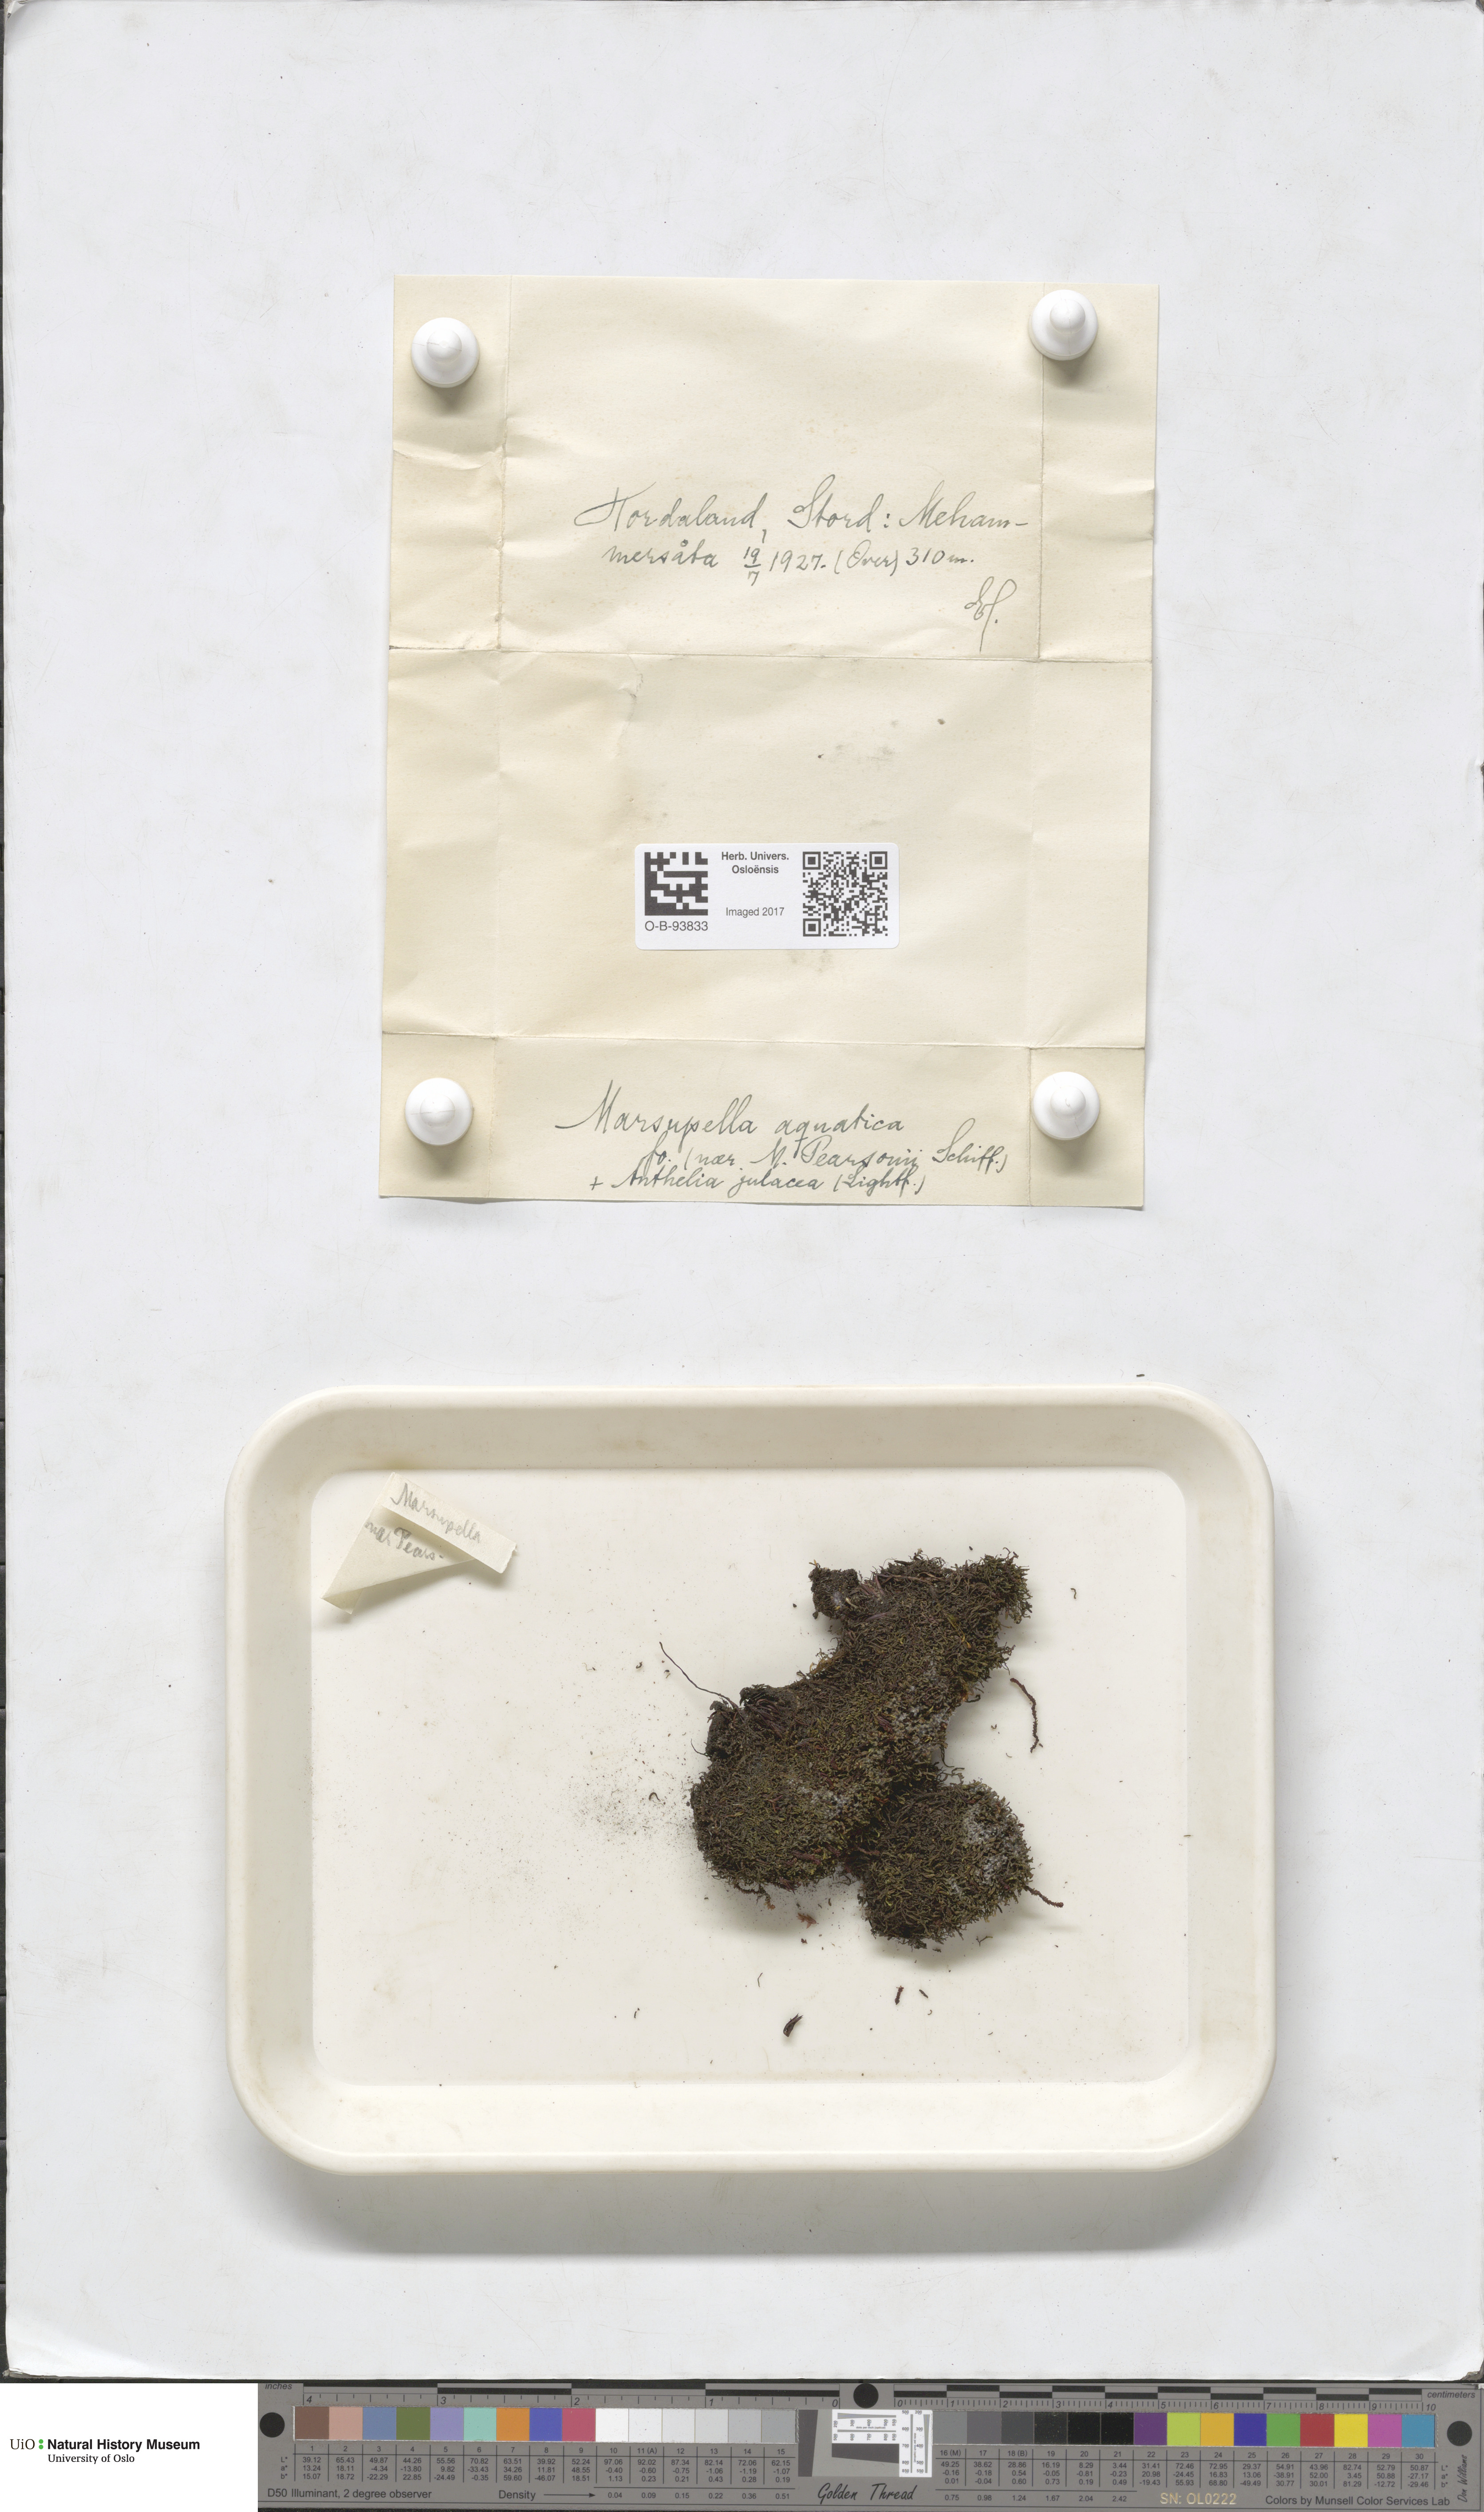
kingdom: Plantae
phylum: Marchantiophyta
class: Jungermanniopsida
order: Jungermanniales
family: Gymnomitriaceae
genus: Marsupella
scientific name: Marsupella emarginata
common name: Notched rustwort
